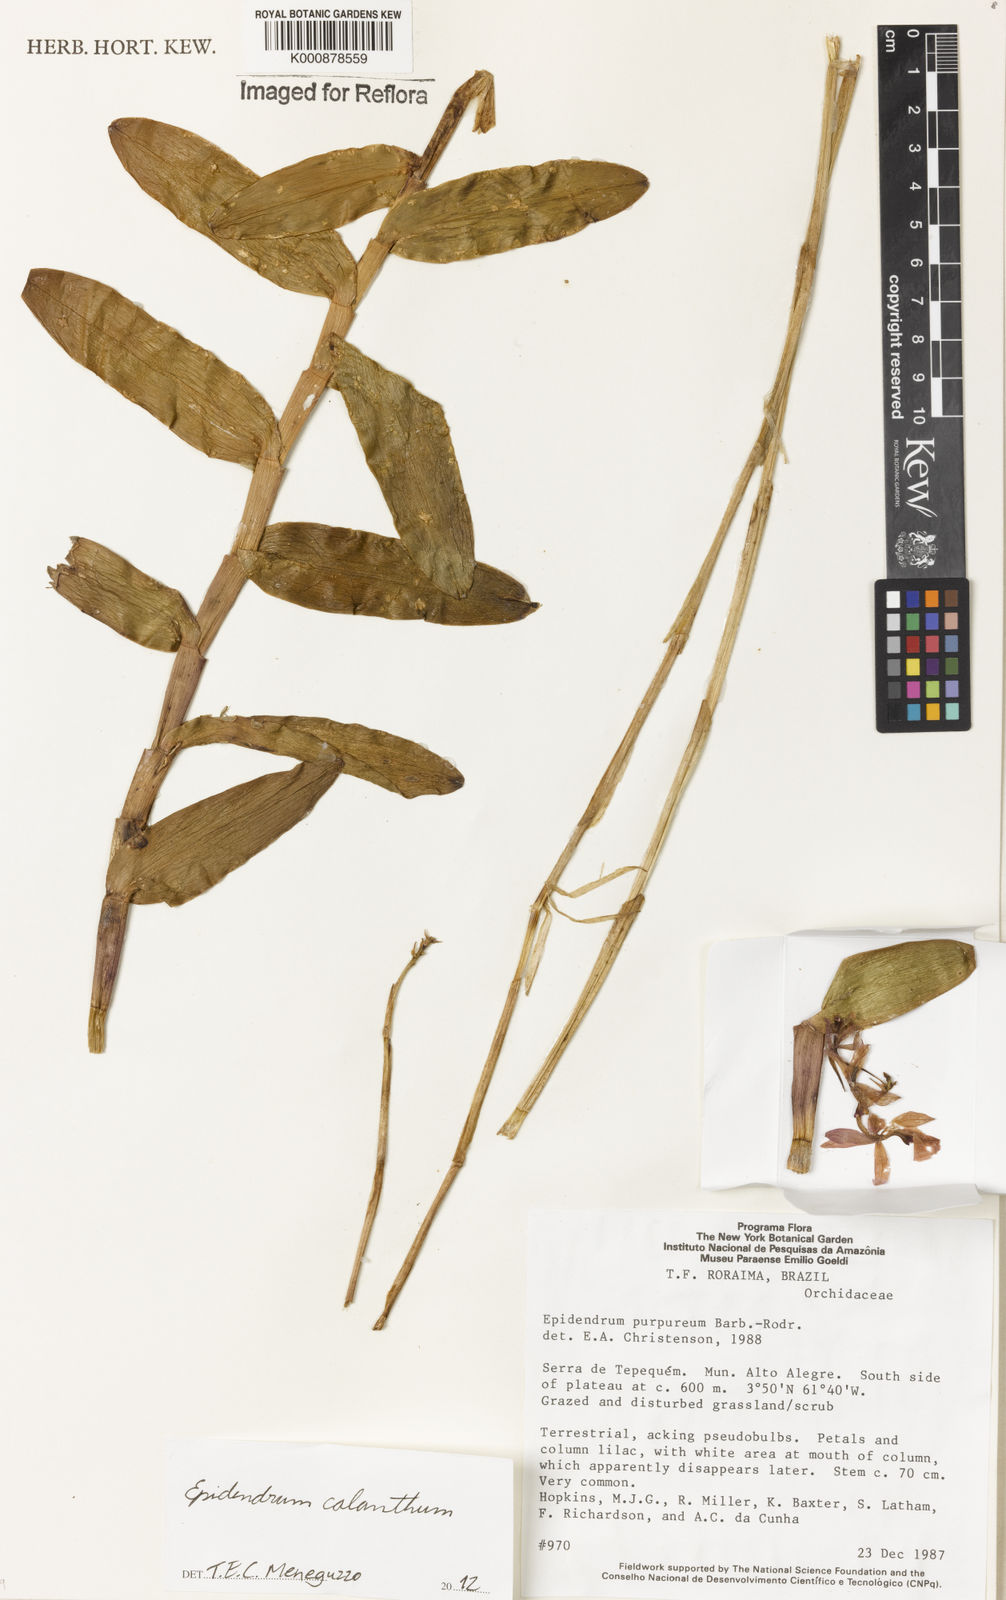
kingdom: Plantae
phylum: Tracheophyta
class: Liliopsida
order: Asparagales
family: Orchidaceae
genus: Epidendrum
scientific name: Epidendrum calanthum
